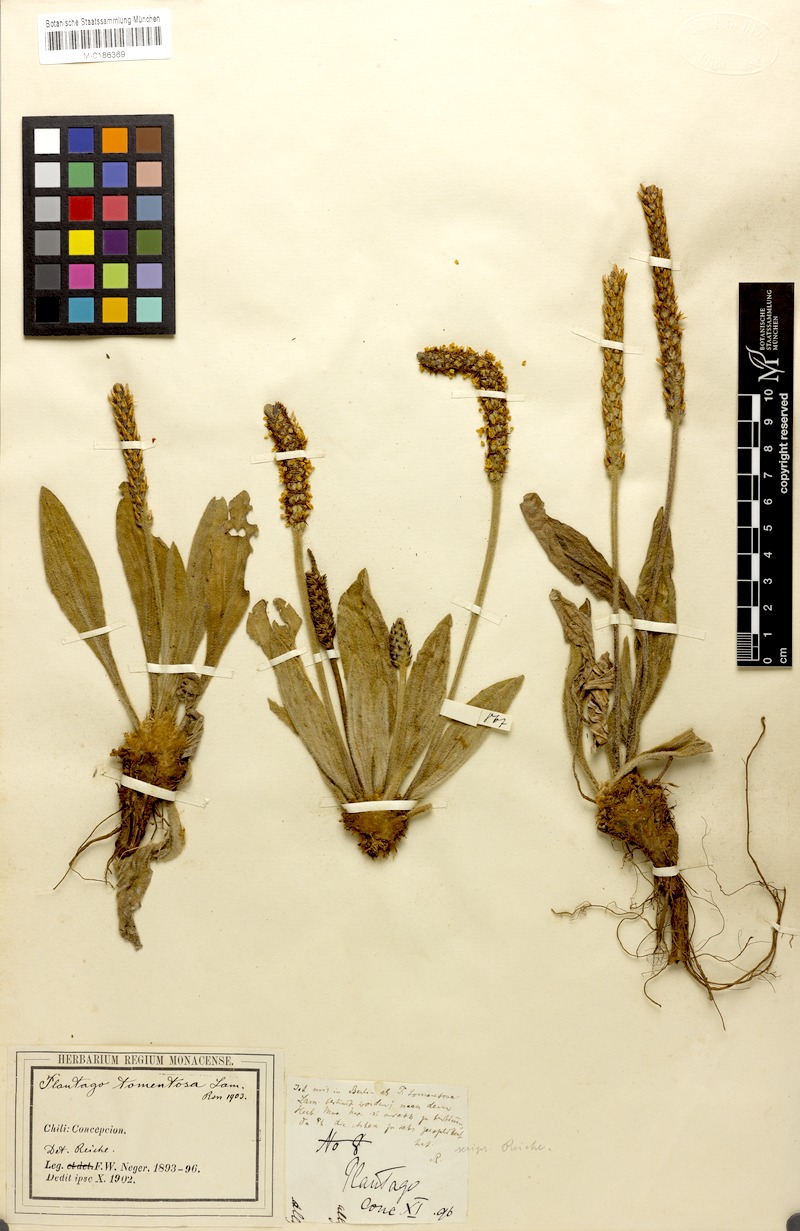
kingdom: Plantae
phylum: Tracheophyta
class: Magnoliopsida
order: Lamiales
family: Plantaginaceae
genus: Plantago
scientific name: Plantago tomentosa
